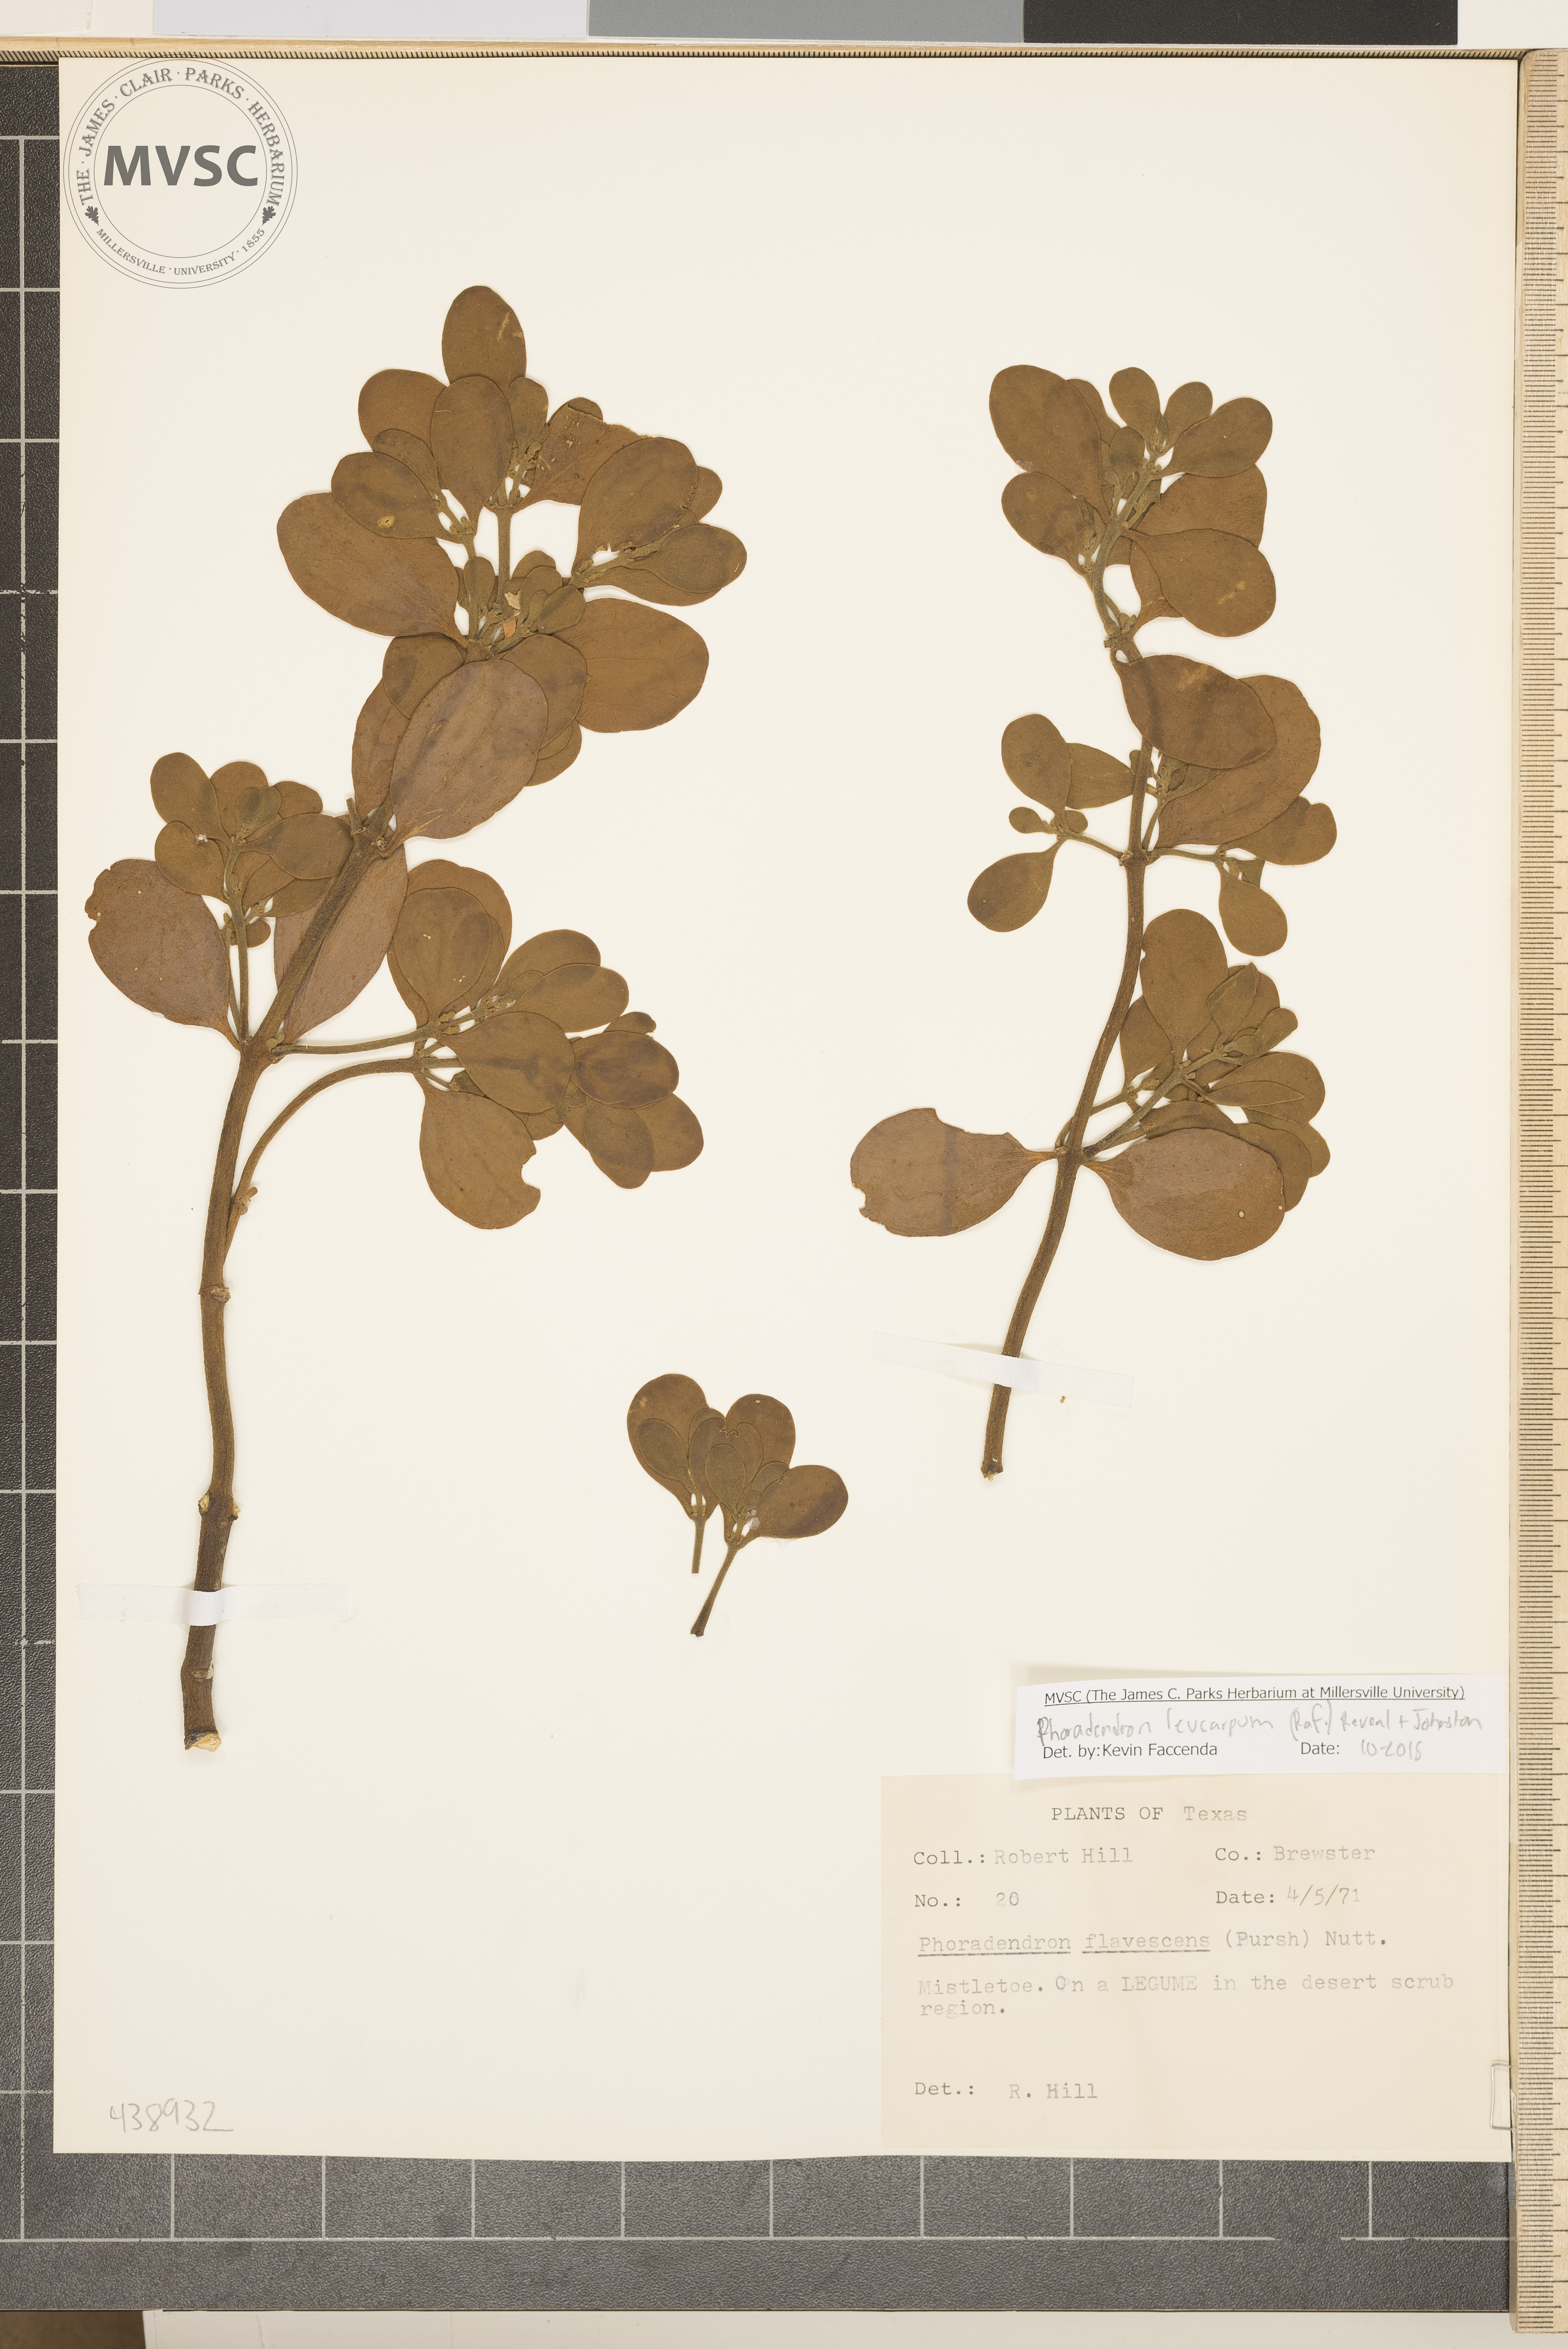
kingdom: Plantae
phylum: Tracheophyta
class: Magnoliopsida
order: Santalales
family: Viscaceae
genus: Phoradendron
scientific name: Phoradendron leucarpum
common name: Mistletoe
